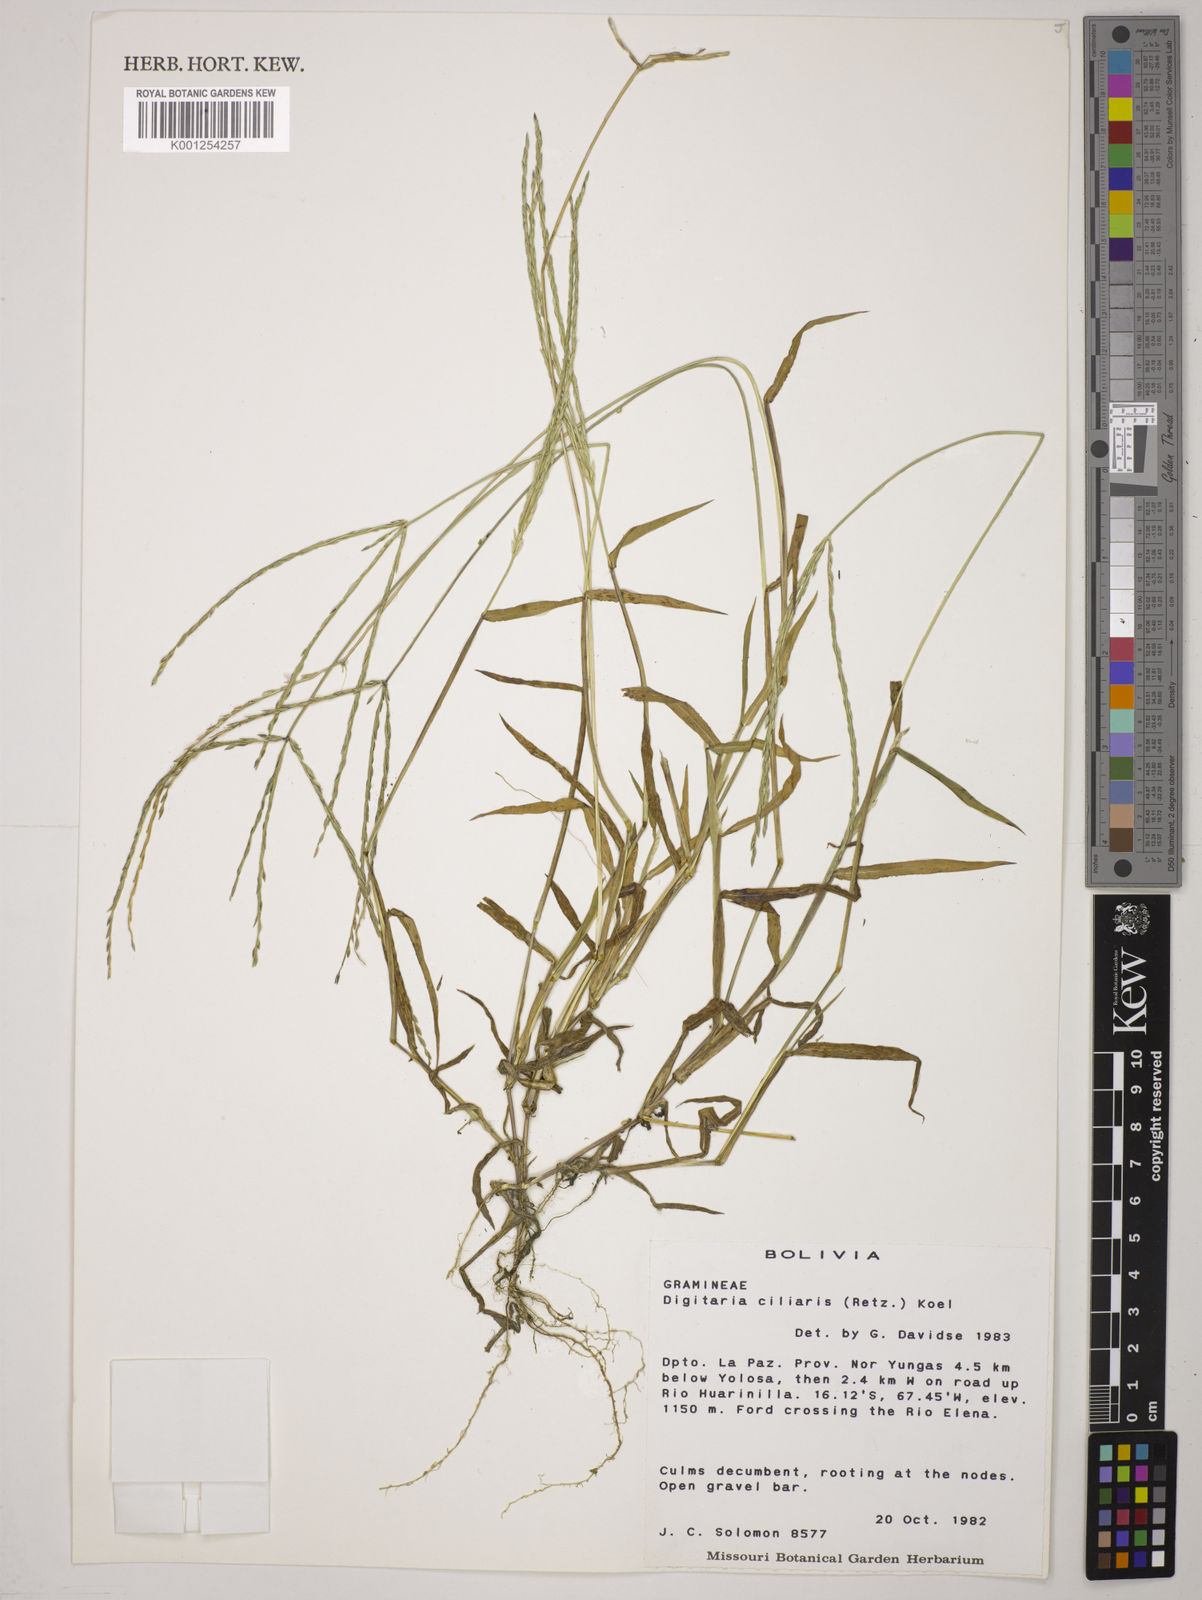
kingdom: Plantae
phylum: Tracheophyta
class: Liliopsida
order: Poales
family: Poaceae
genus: Digitaria
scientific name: Digitaria
